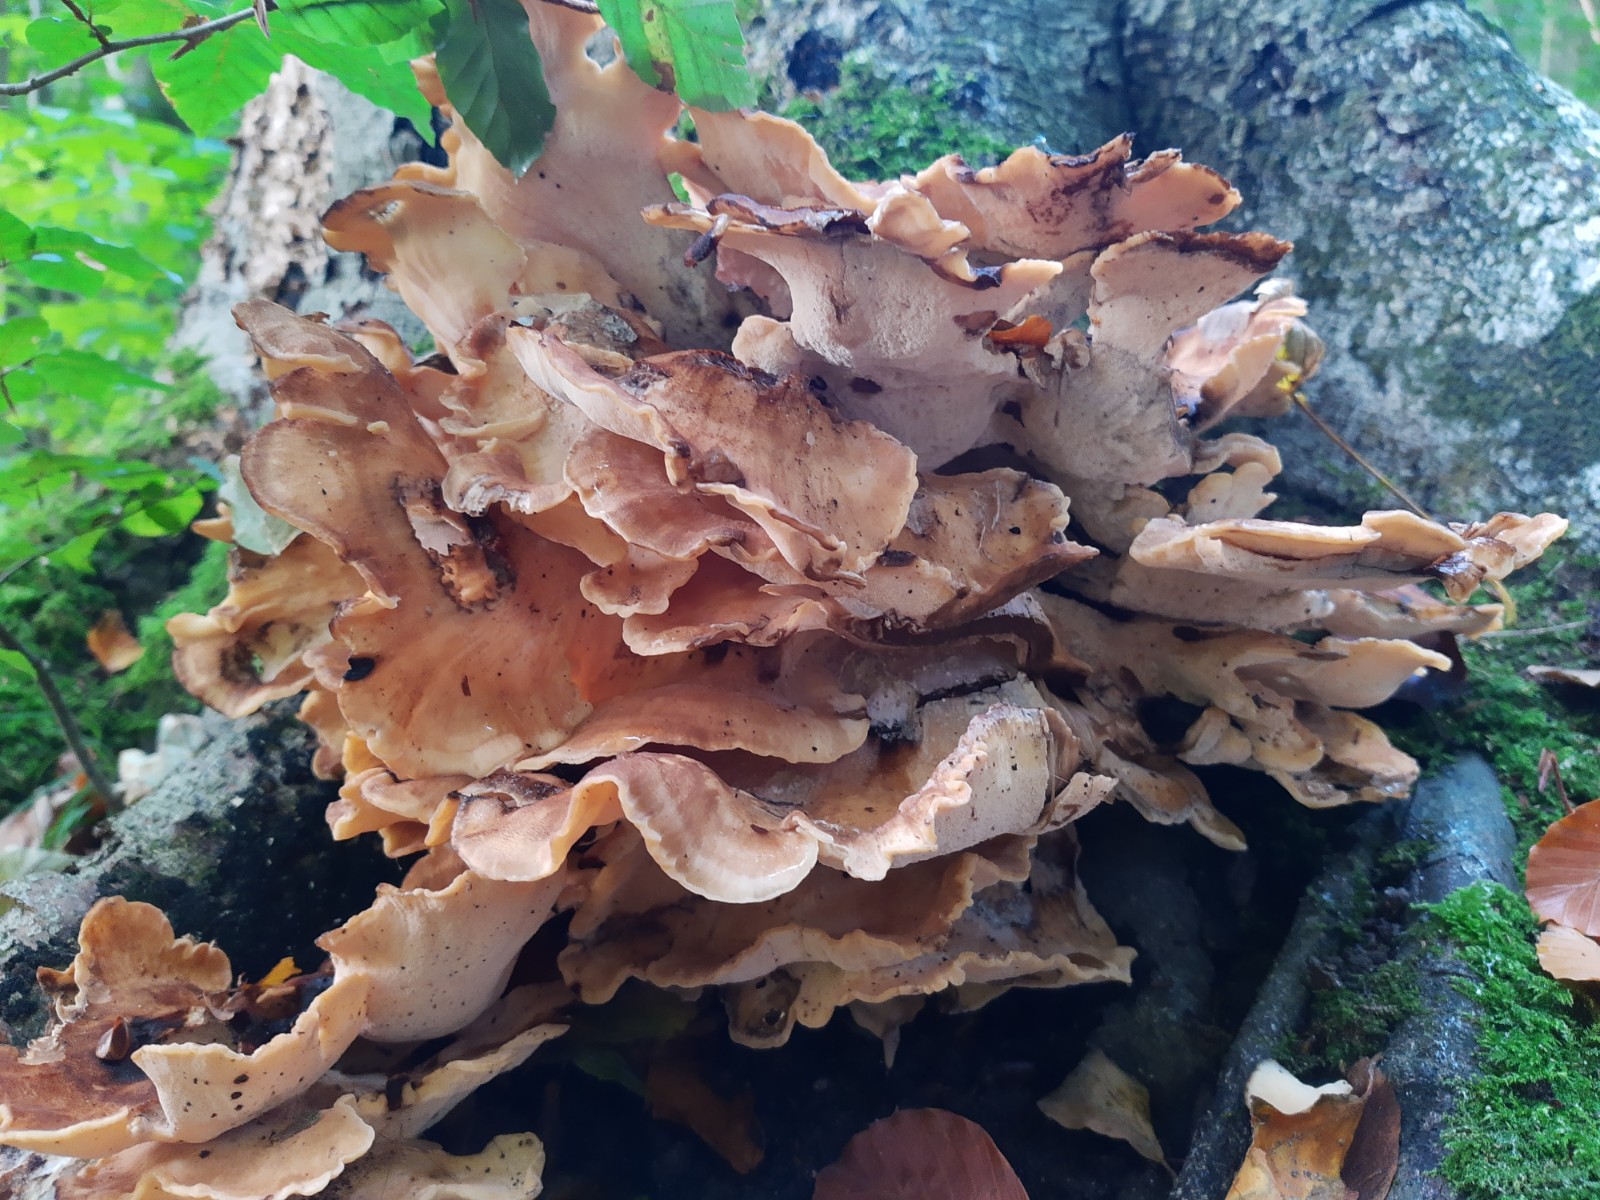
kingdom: Fungi
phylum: Basidiomycota
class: Agaricomycetes
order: Polyporales
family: Meripilaceae
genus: Meripilus
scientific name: Meripilus giganteus
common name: kæmpeporesvamp
